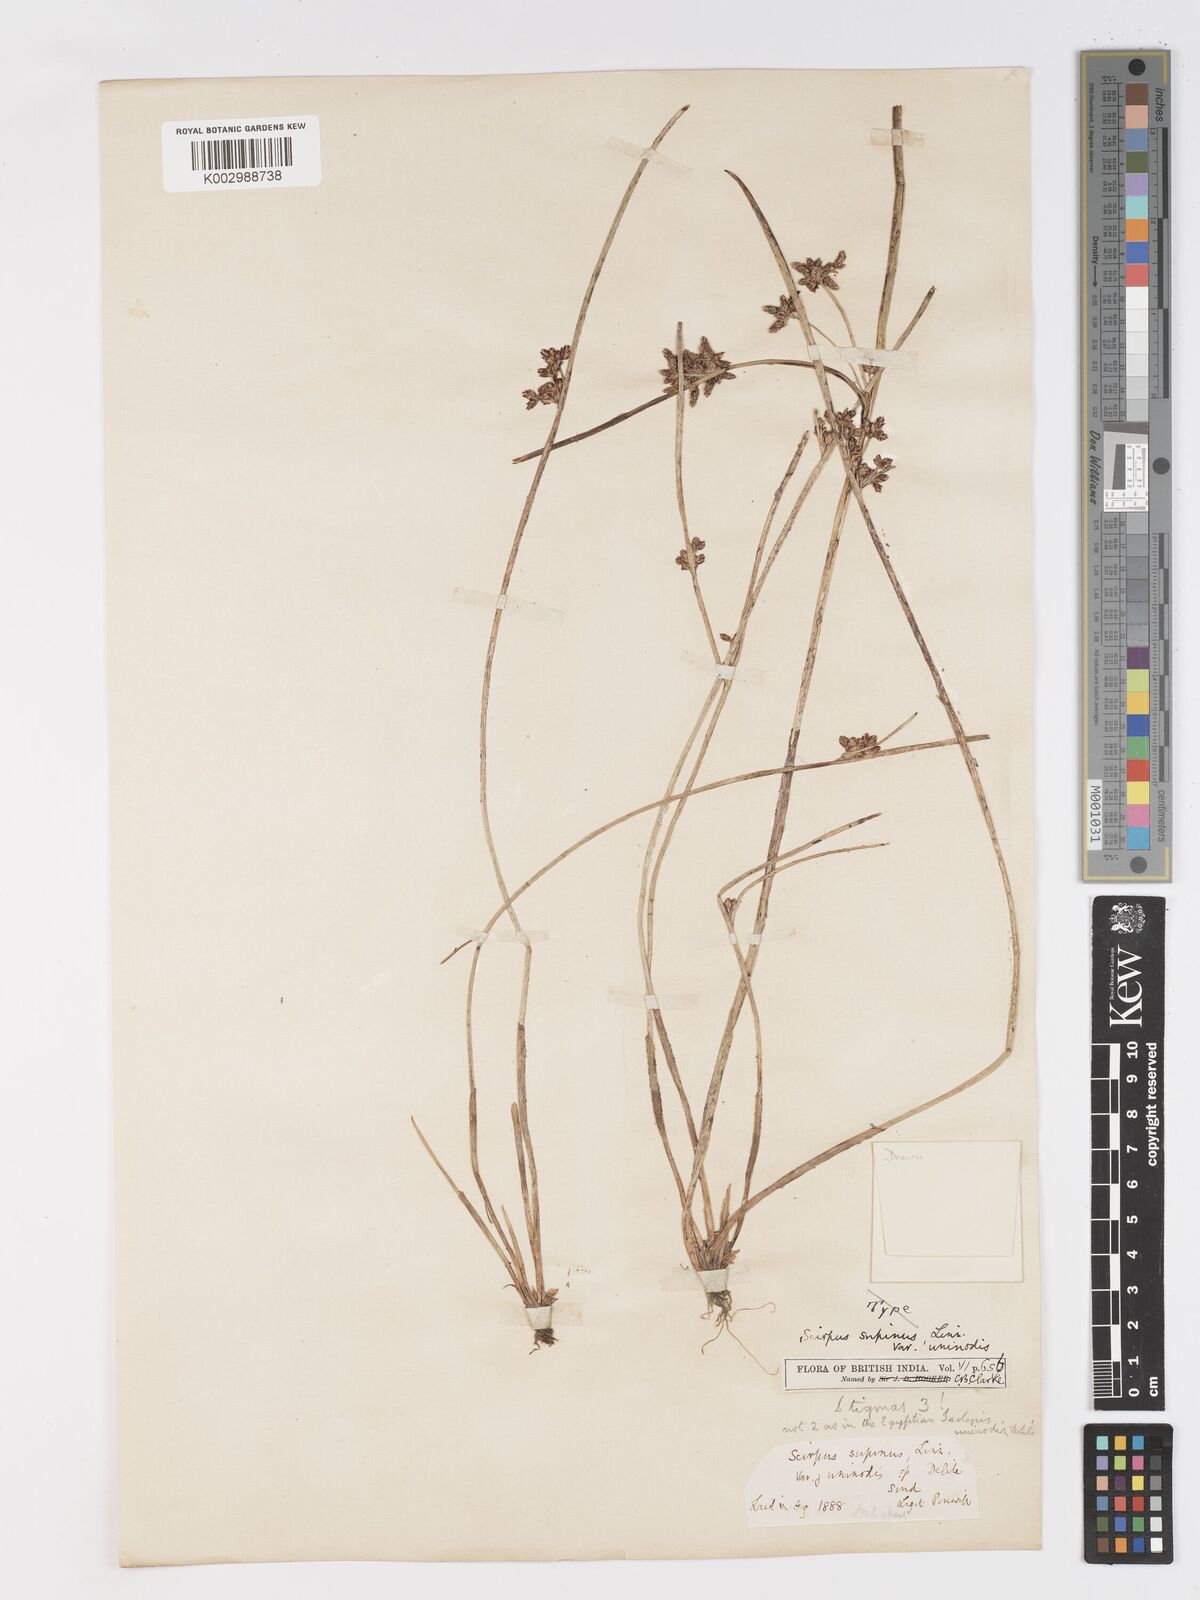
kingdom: Plantae
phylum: Tracheophyta
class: Liliopsida
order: Poales
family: Cyperaceae
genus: Schoenoplectiella
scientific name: Schoenoplectiella lateriflora
